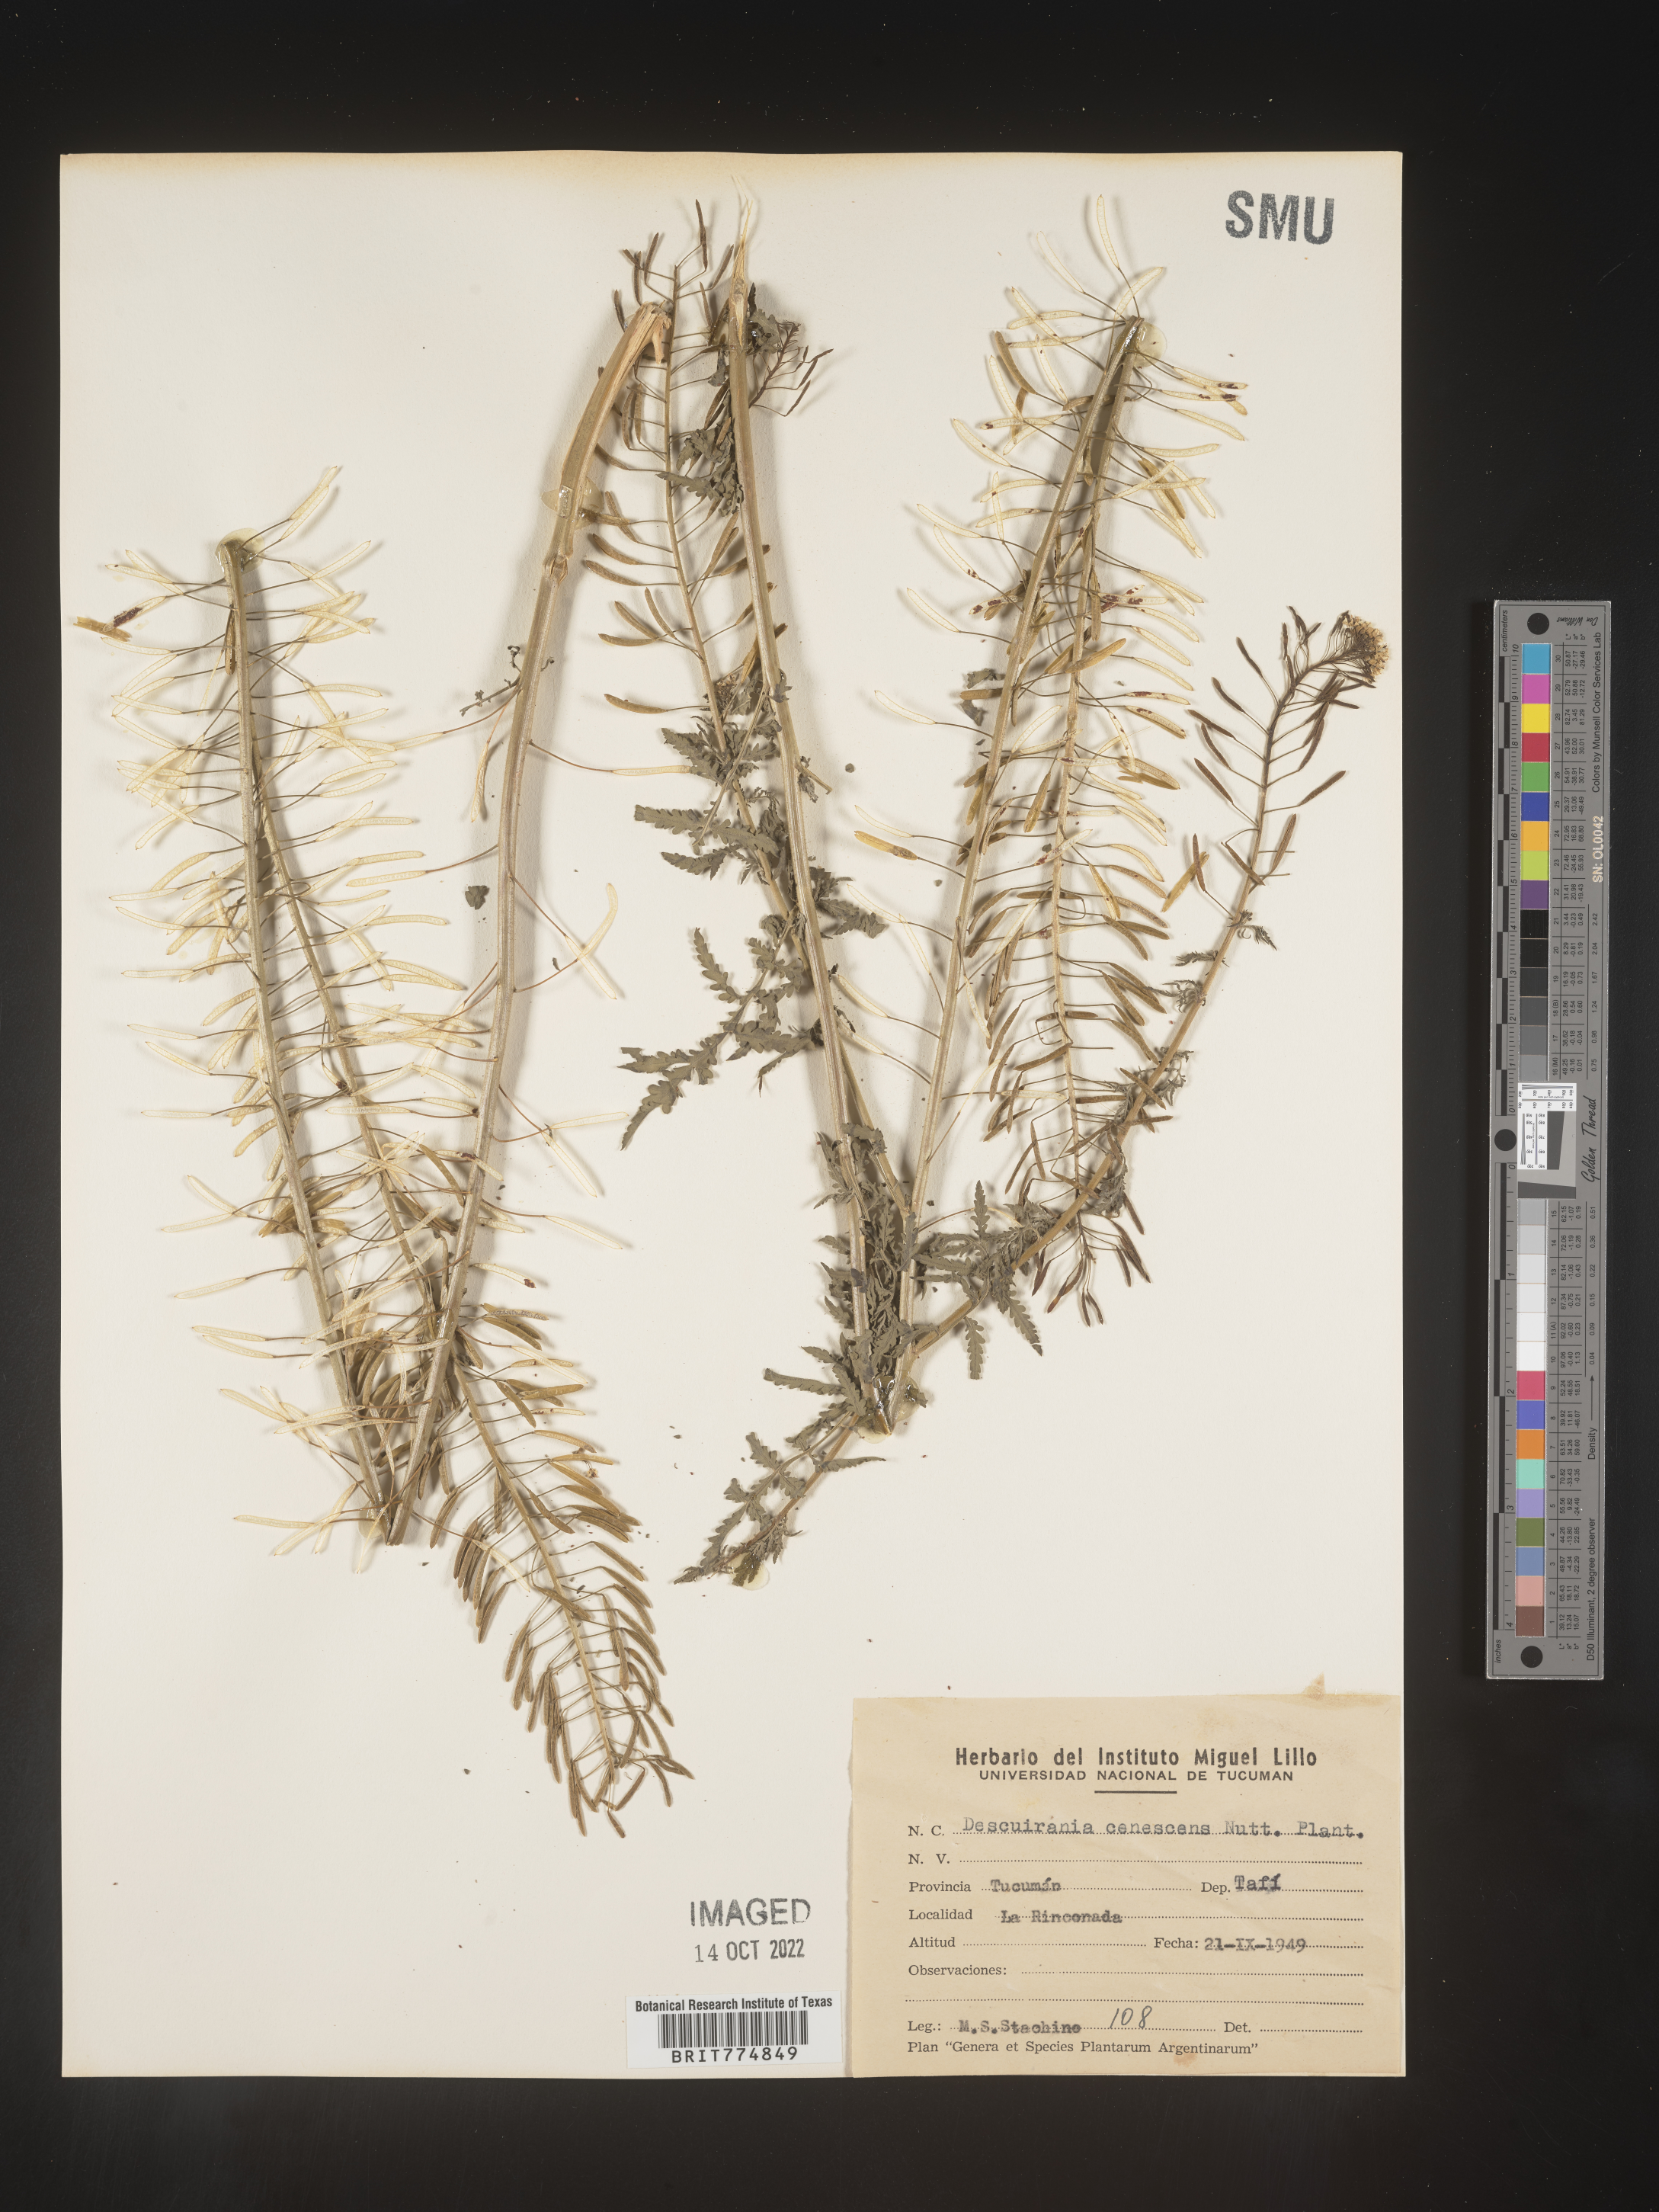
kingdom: Plantae
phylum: Tracheophyta
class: Magnoliopsida
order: Brassicales
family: Brassicaceae
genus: Descurainia
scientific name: Descurainia
